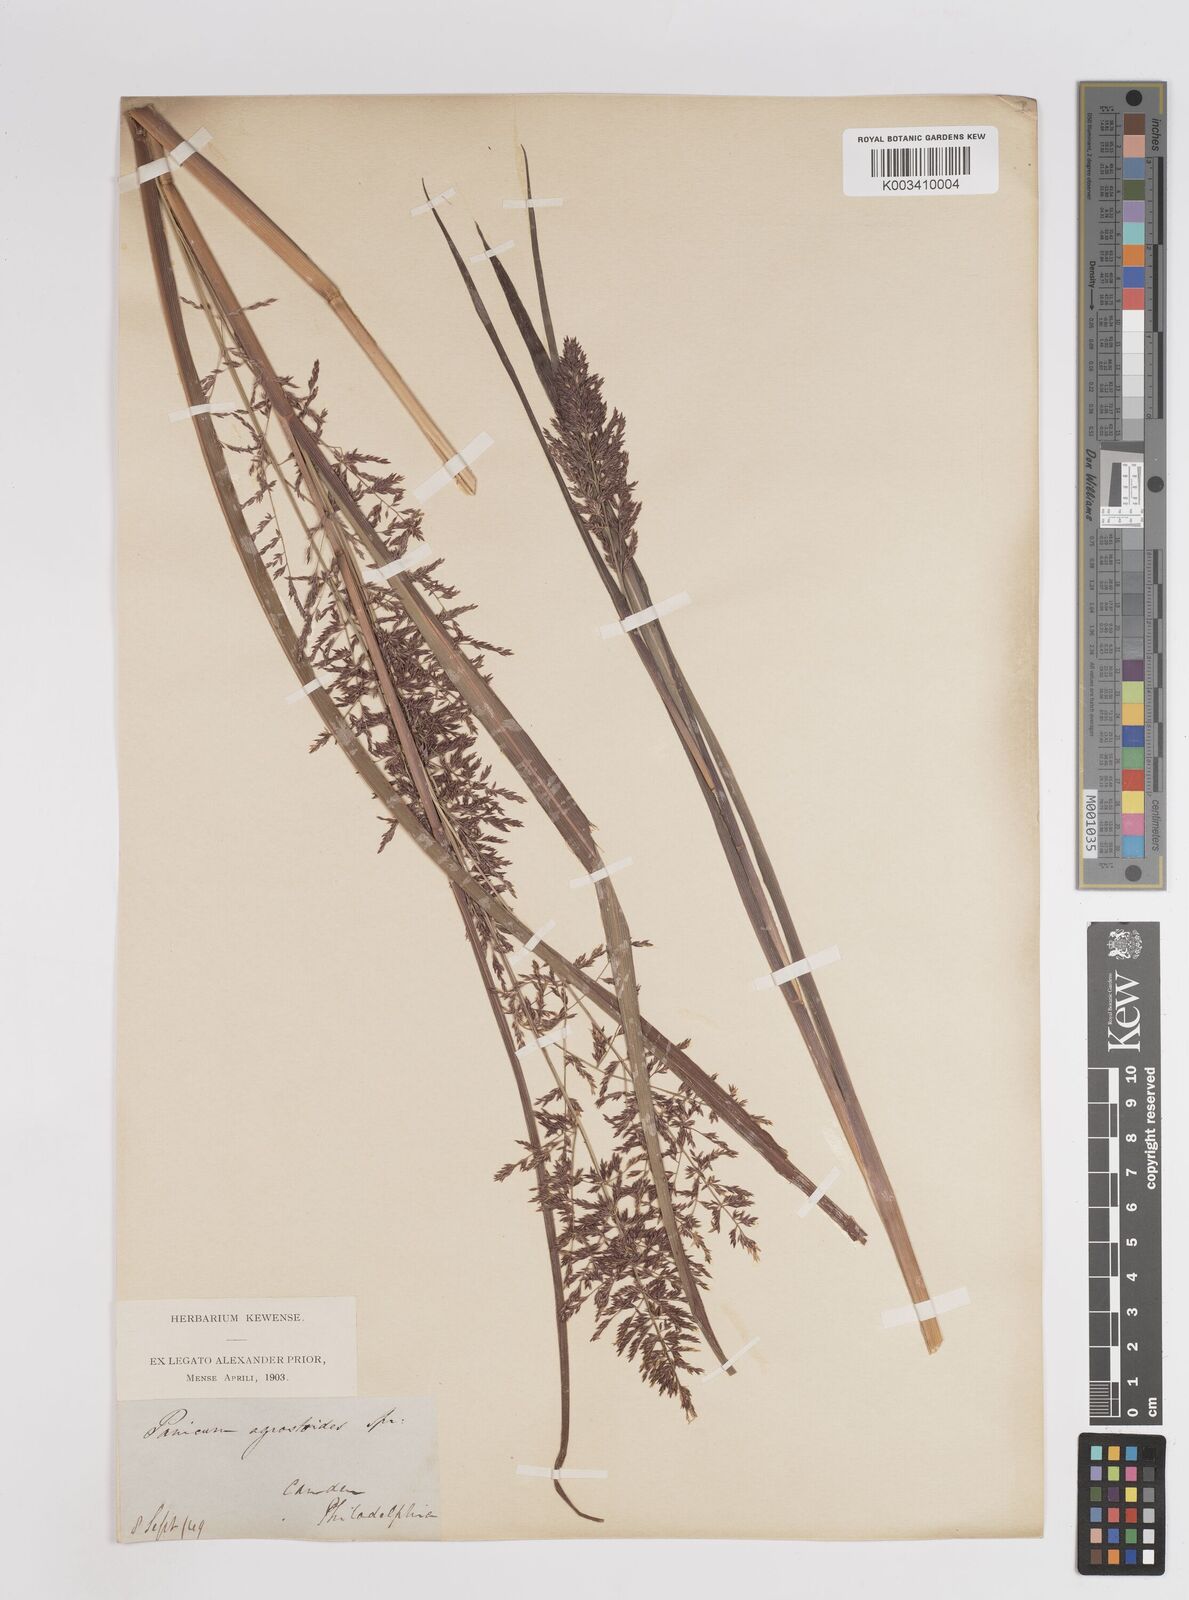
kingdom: Plantae
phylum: Tracheophyta
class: Liliopsida
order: Poales
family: Poaceae
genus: Coleataenia
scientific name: Coleataenia pulchra
